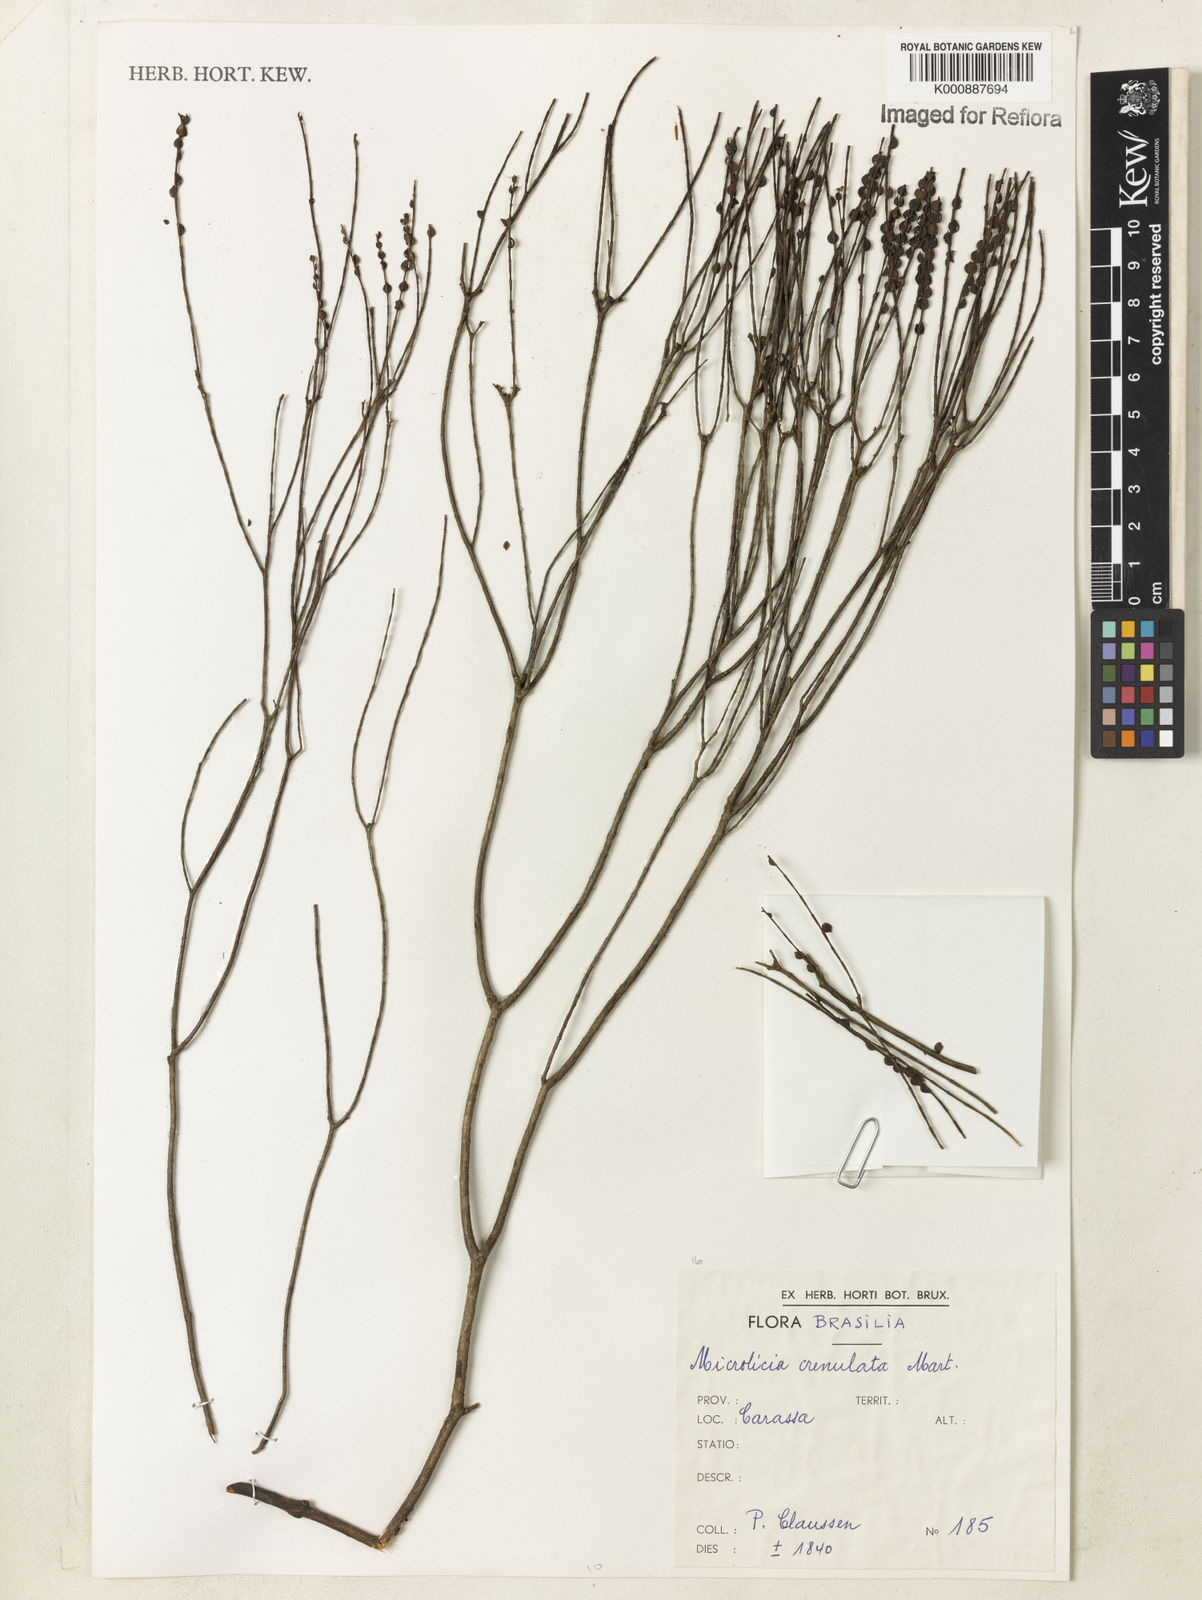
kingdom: Plantae
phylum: Tracheophyta
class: Magnoliopsida
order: Myrtales
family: Melastomataceae
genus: Microlicia
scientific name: Microlicia crenulata
